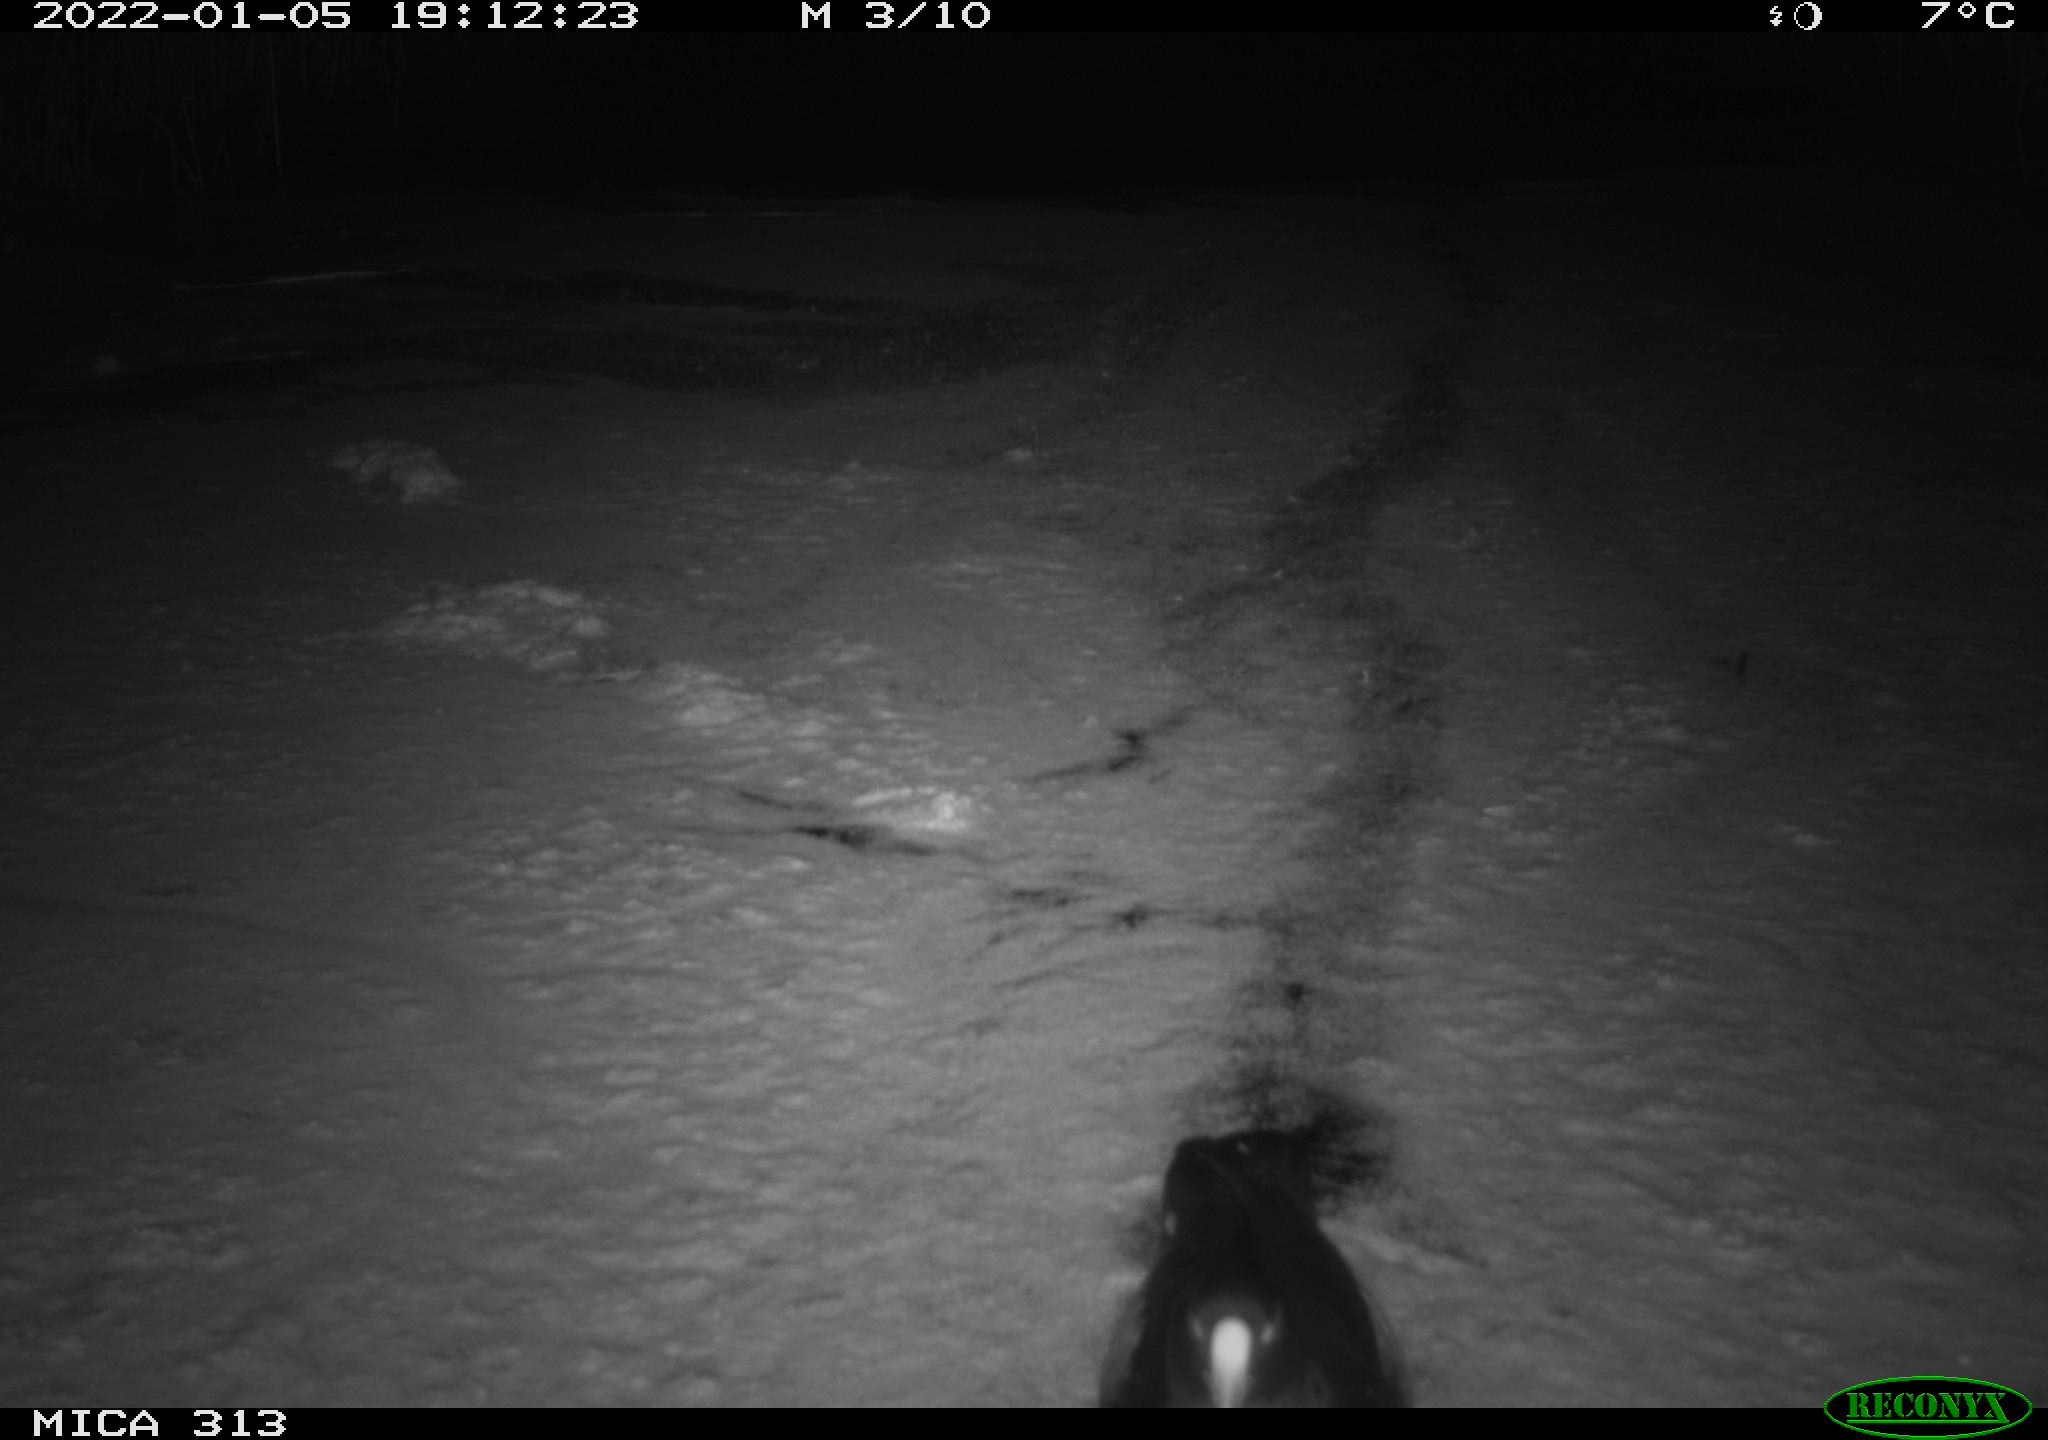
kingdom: Animalia
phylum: Chordata
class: Aves
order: Gruiformes
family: Rallidae
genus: Fulica
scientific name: Fulica atra
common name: Eurasian coot
